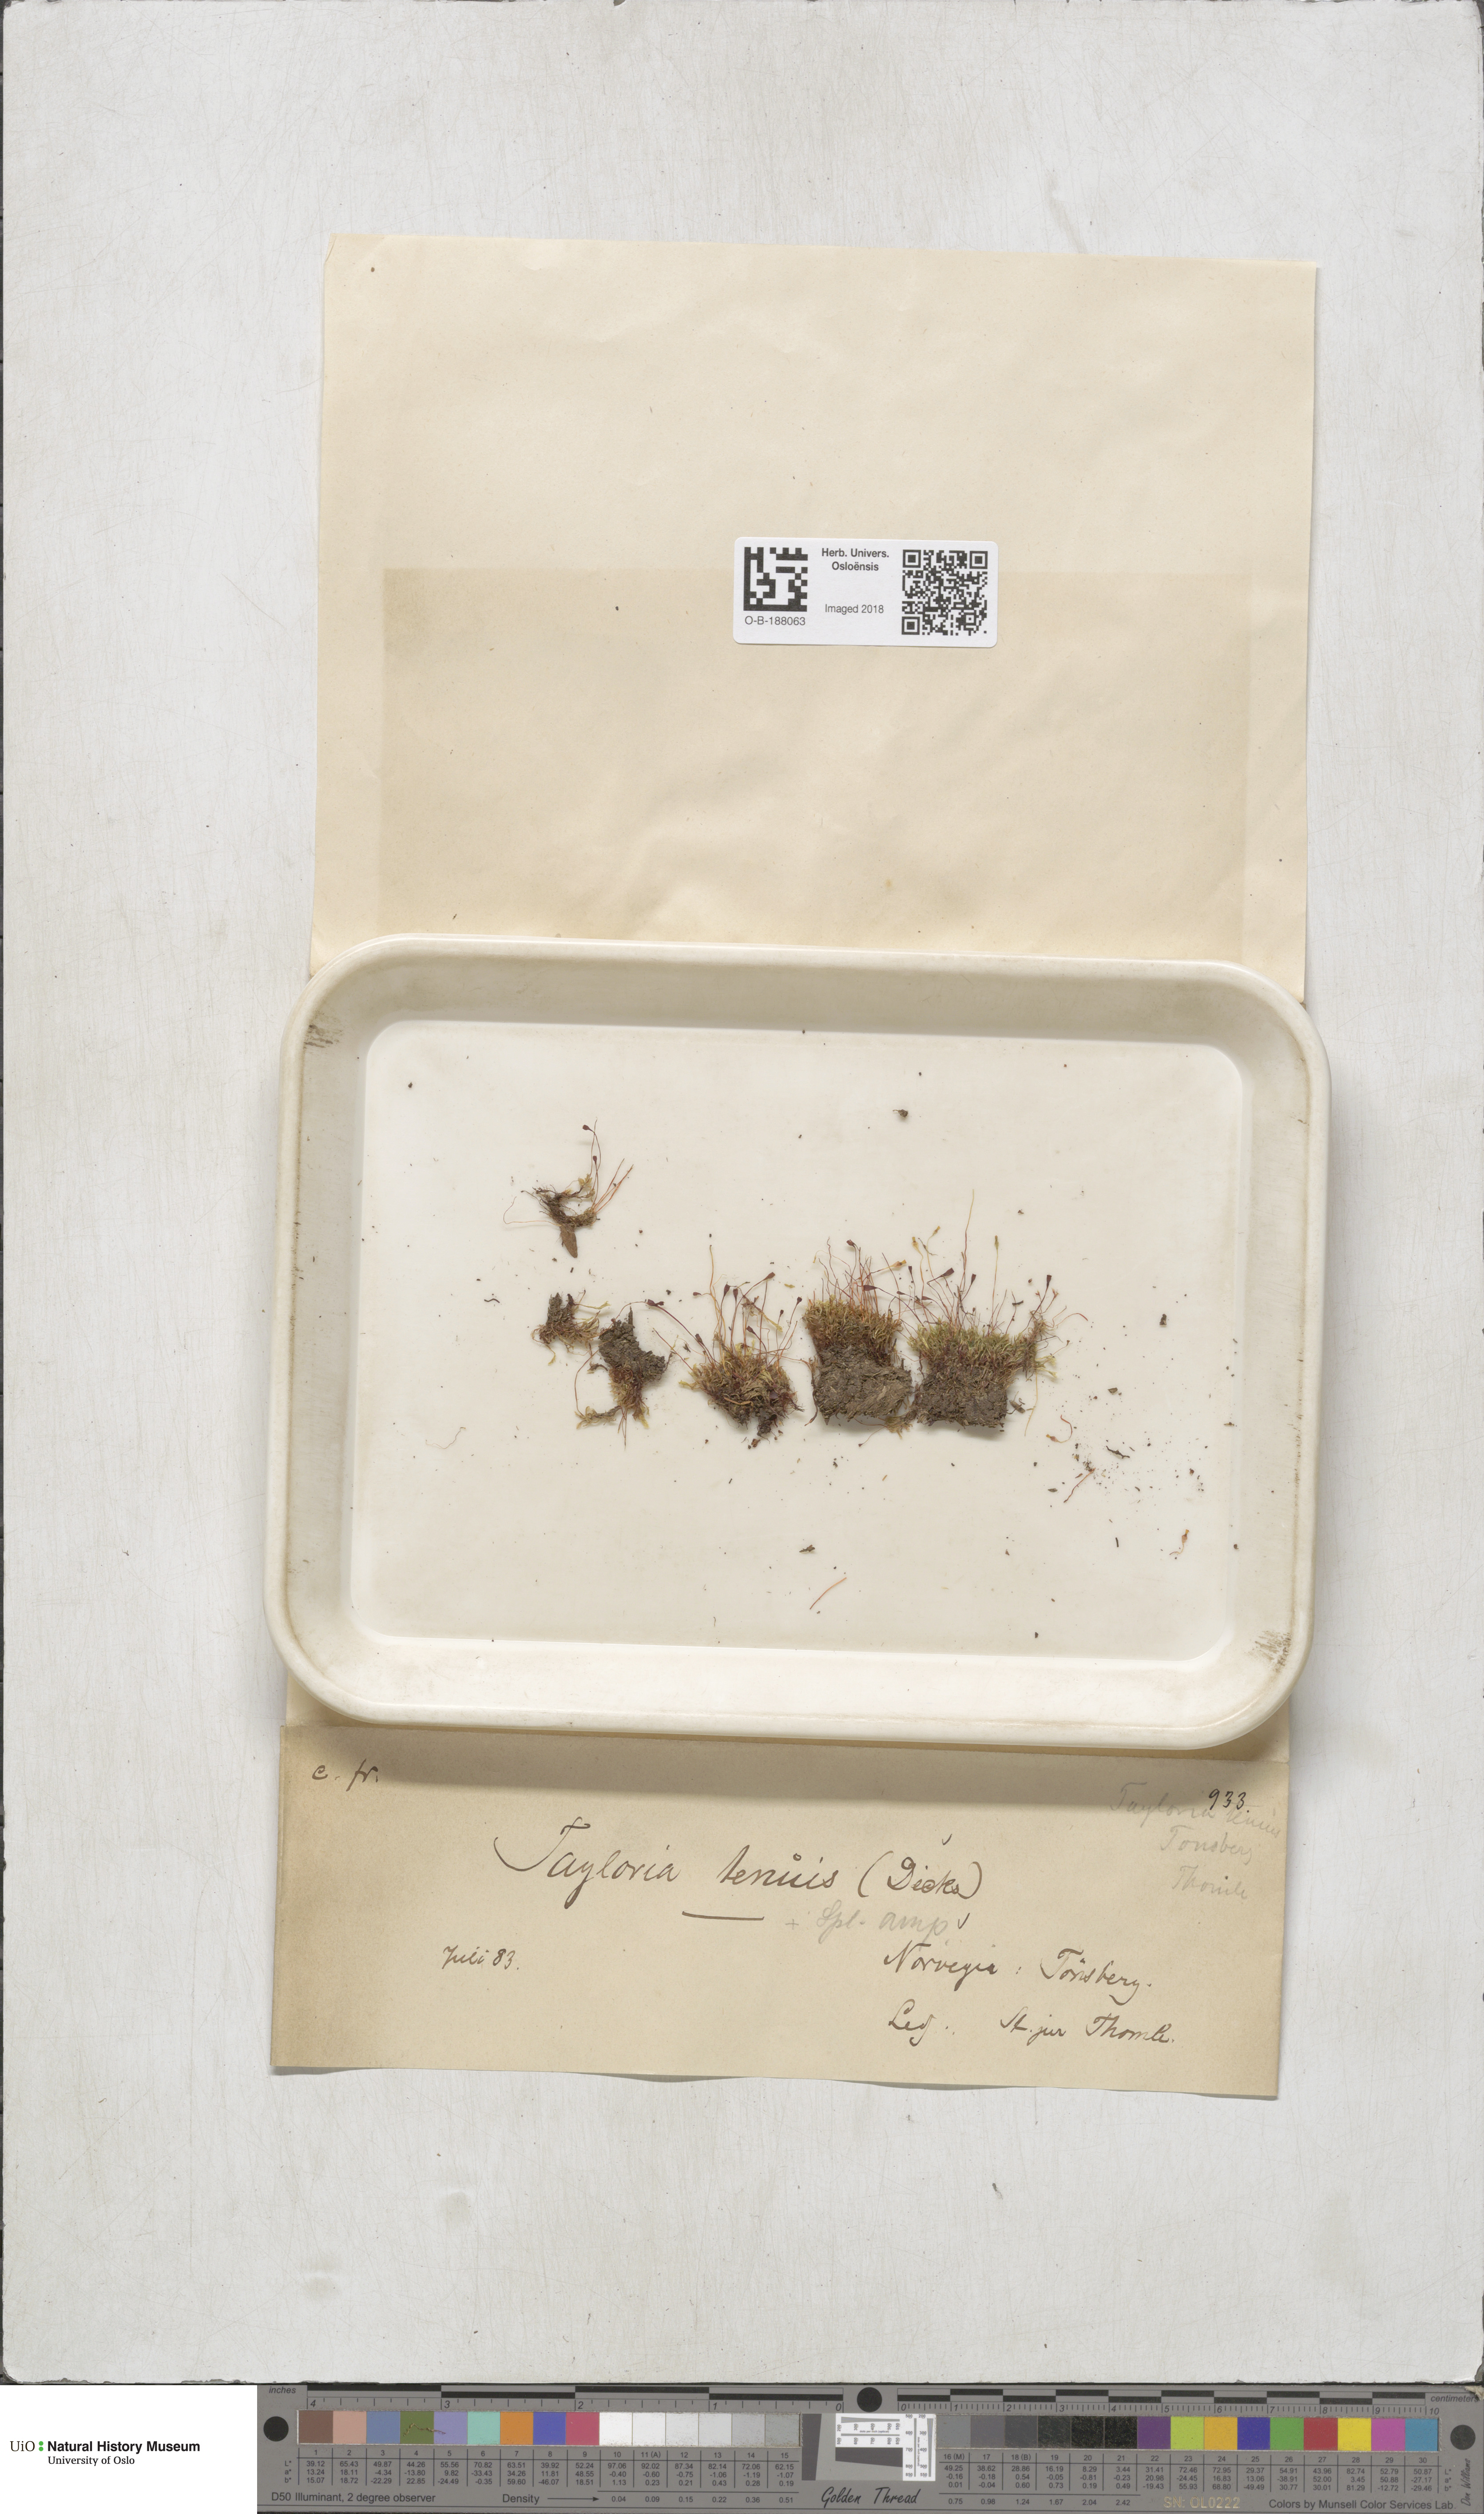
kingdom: Plantae
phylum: Bryophyta
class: Bryopsida
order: Splachnales
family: Splachnaceae
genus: Tayloria
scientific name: Tayloria tenuis
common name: Slender gland-moss
